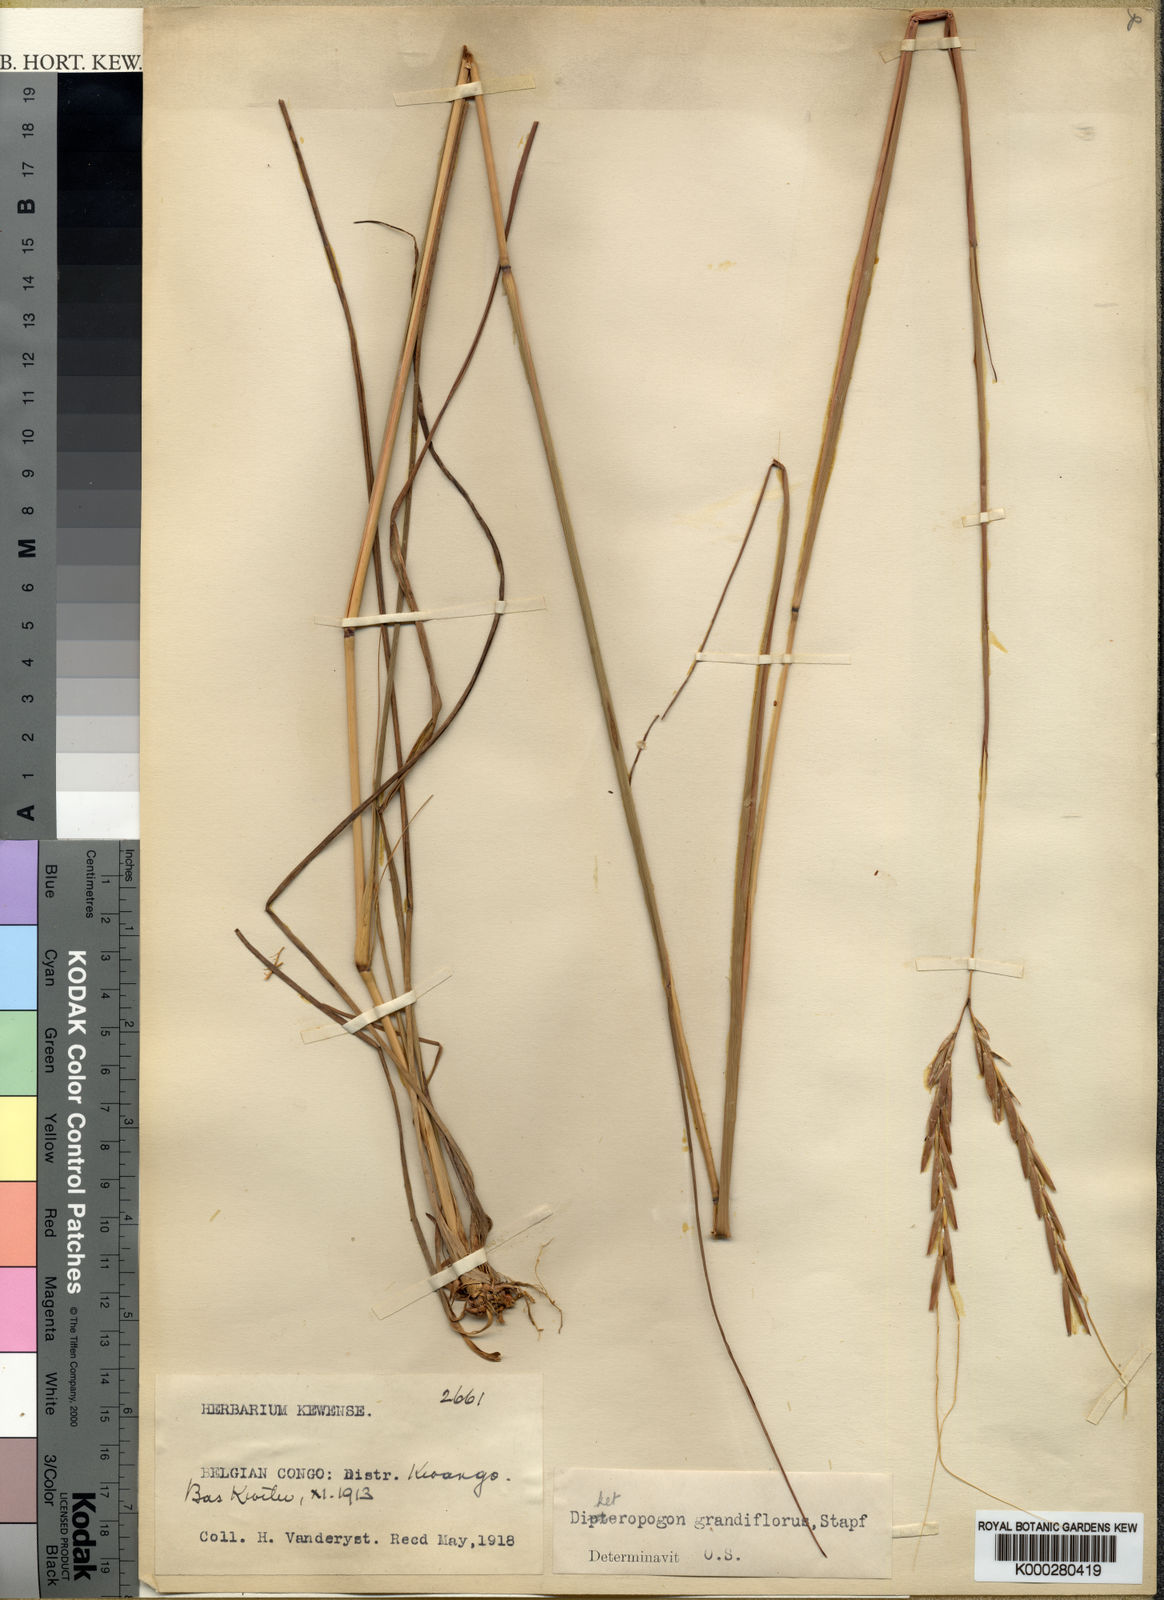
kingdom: Plantae
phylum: Tracheophyta
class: Liliopsida
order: Poales
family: Poaceae
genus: Diheteropogon
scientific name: Diheteropogon filifolius
